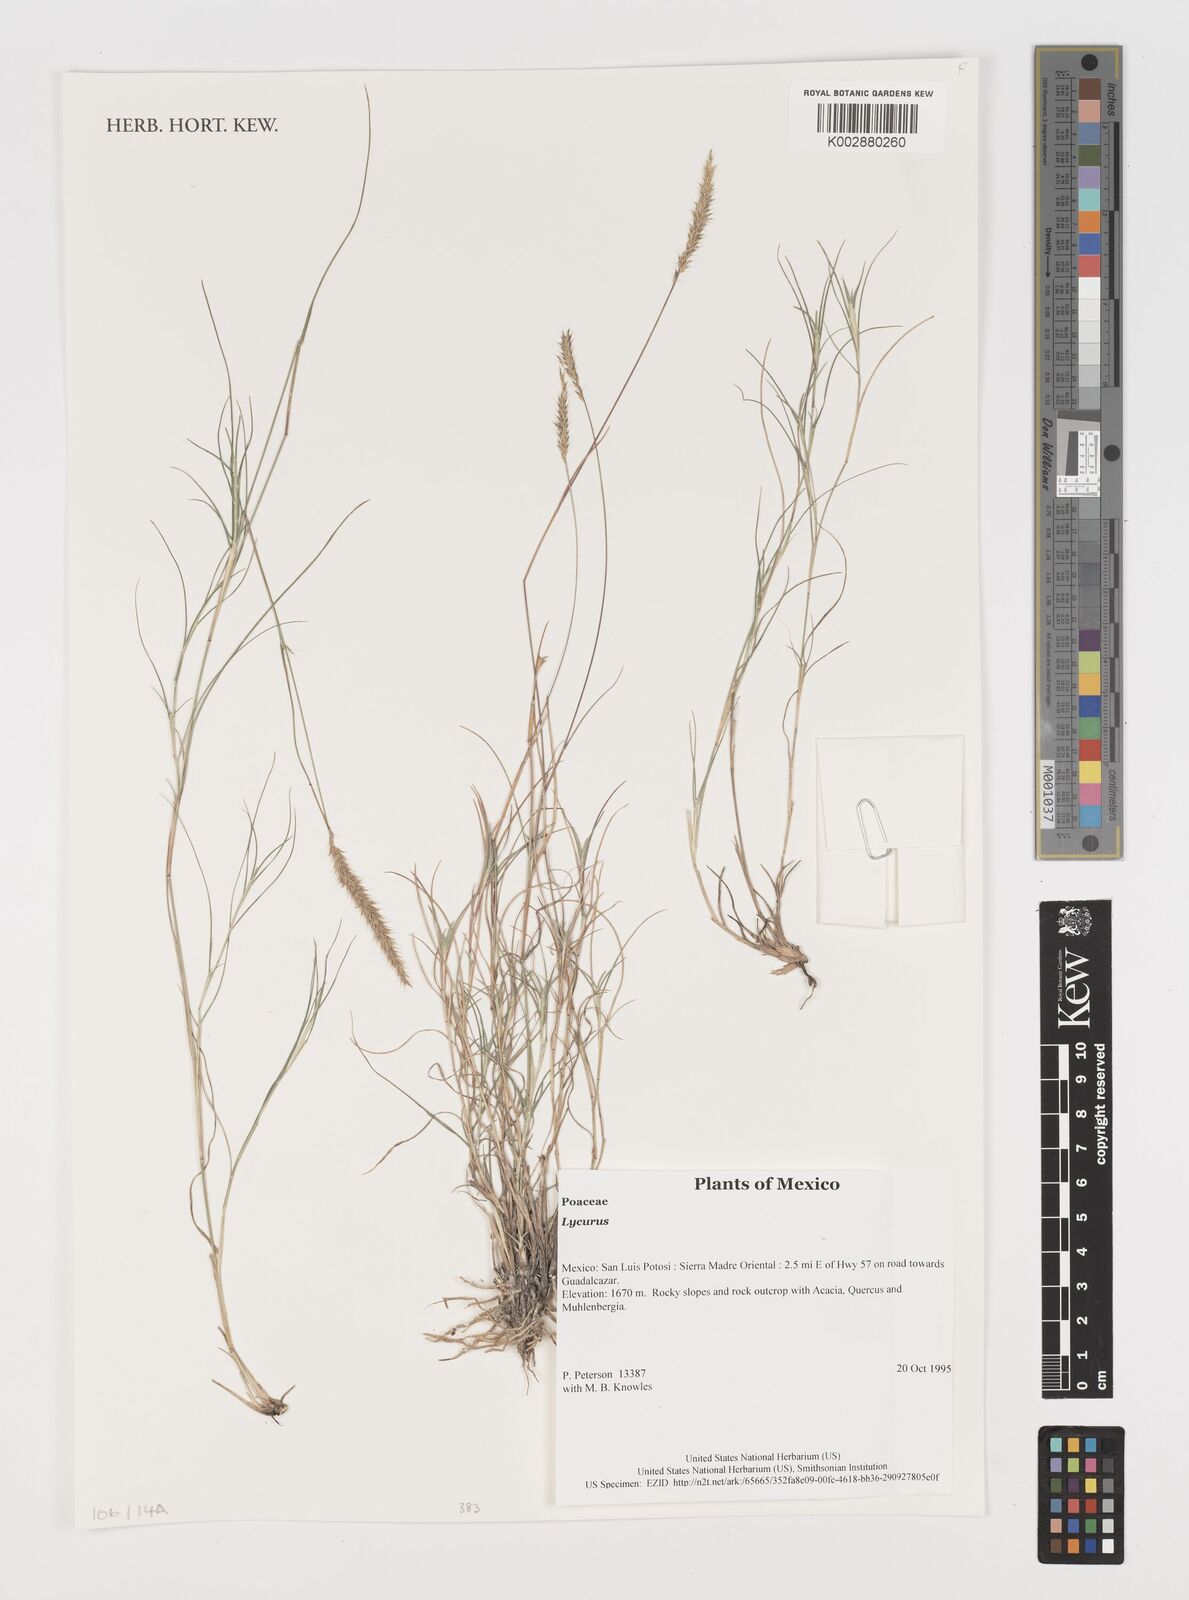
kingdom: Plantae
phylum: Tracheophyta
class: Liliopsida
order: Poales
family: Poaceae
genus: Muhlenbergia
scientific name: Muhlenbergia
